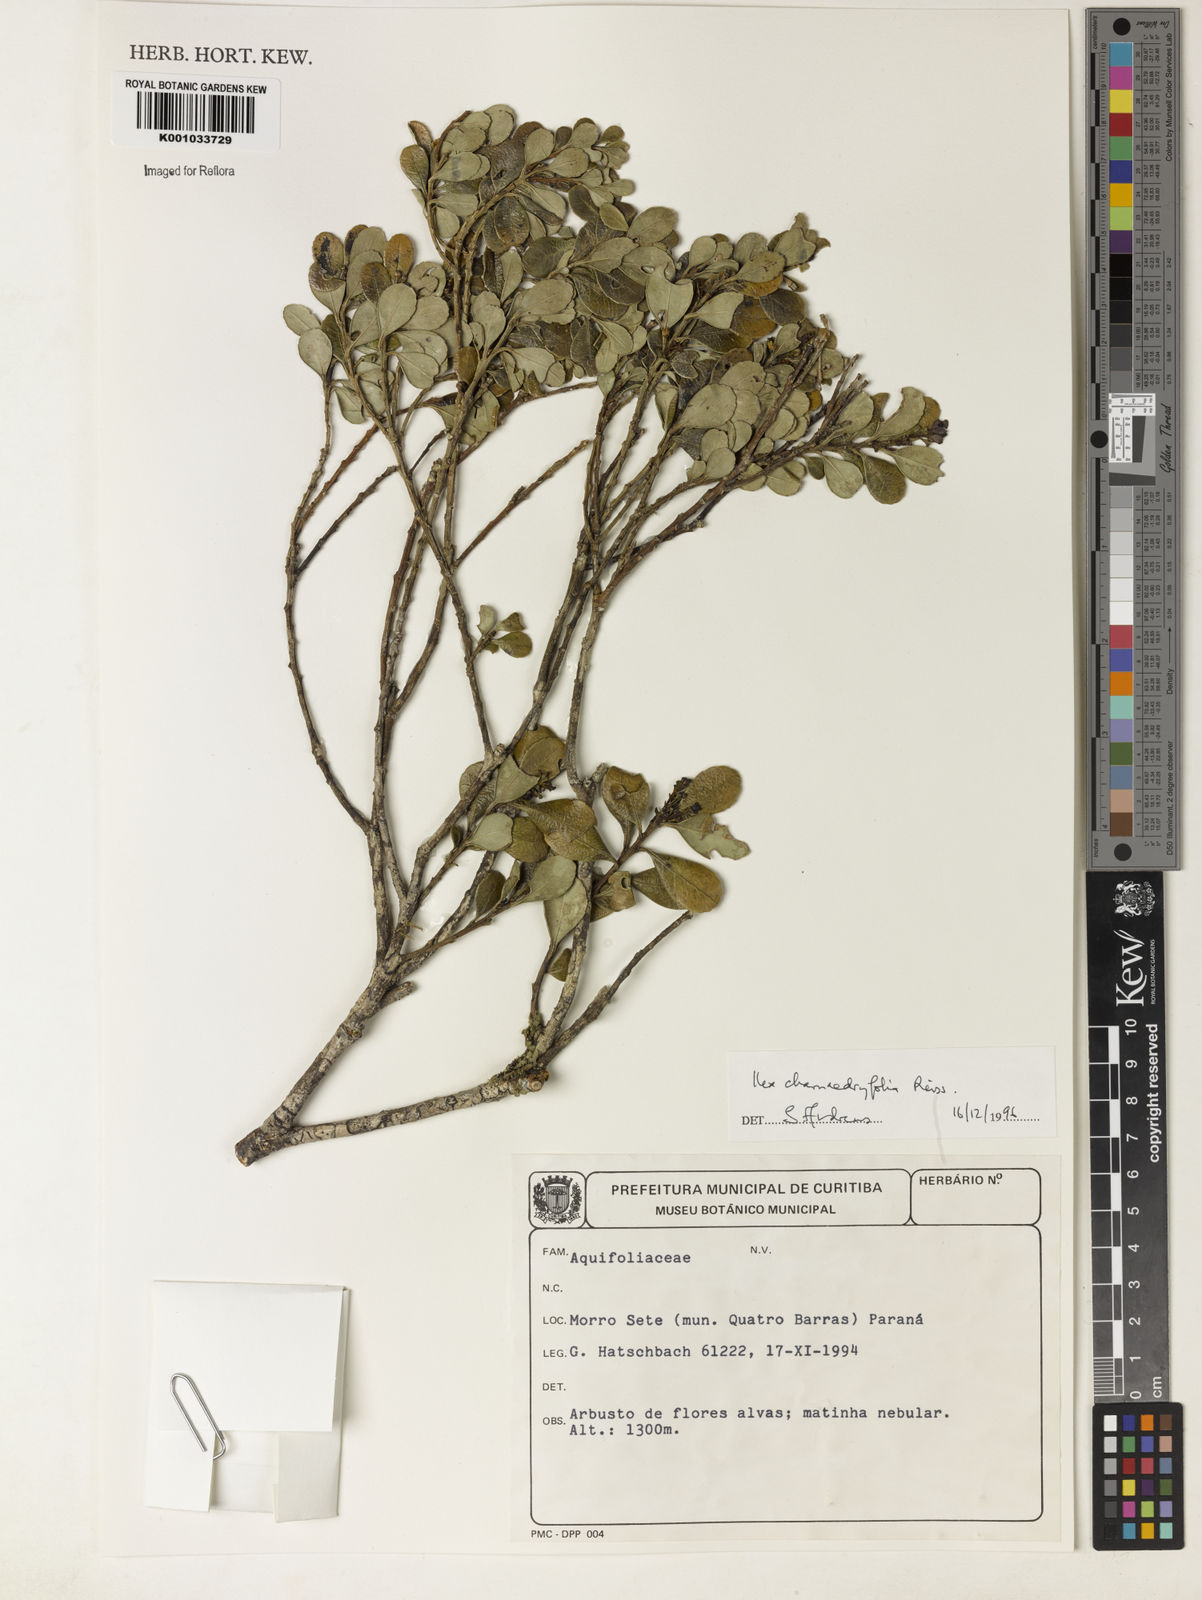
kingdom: Plantae
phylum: Tracheophyta
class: Magnoliopsida
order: Aquifoliales
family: Aquifoliaceae
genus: Ilex
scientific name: Ilex chamaedryfolia
